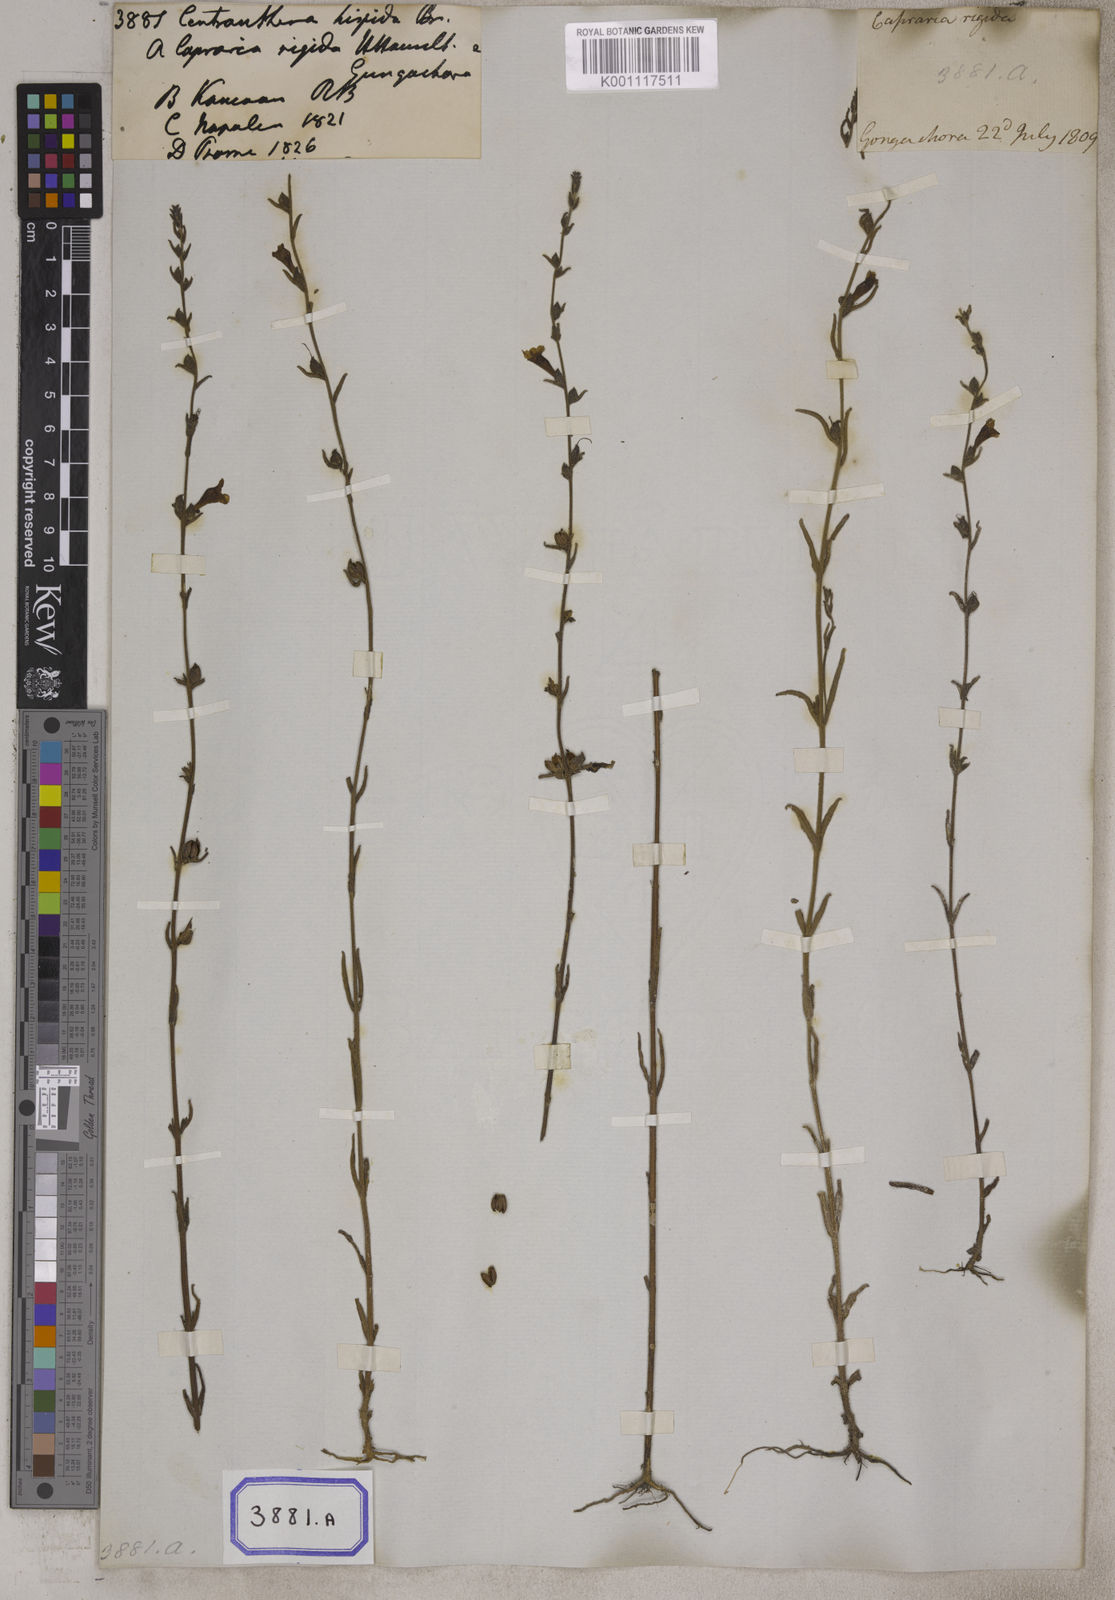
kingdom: Plantae
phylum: Tracheophyta
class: Magnoliopsida
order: Lamiales
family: Orobanchaceae
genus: Centranthera
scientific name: Centranthera hispida
